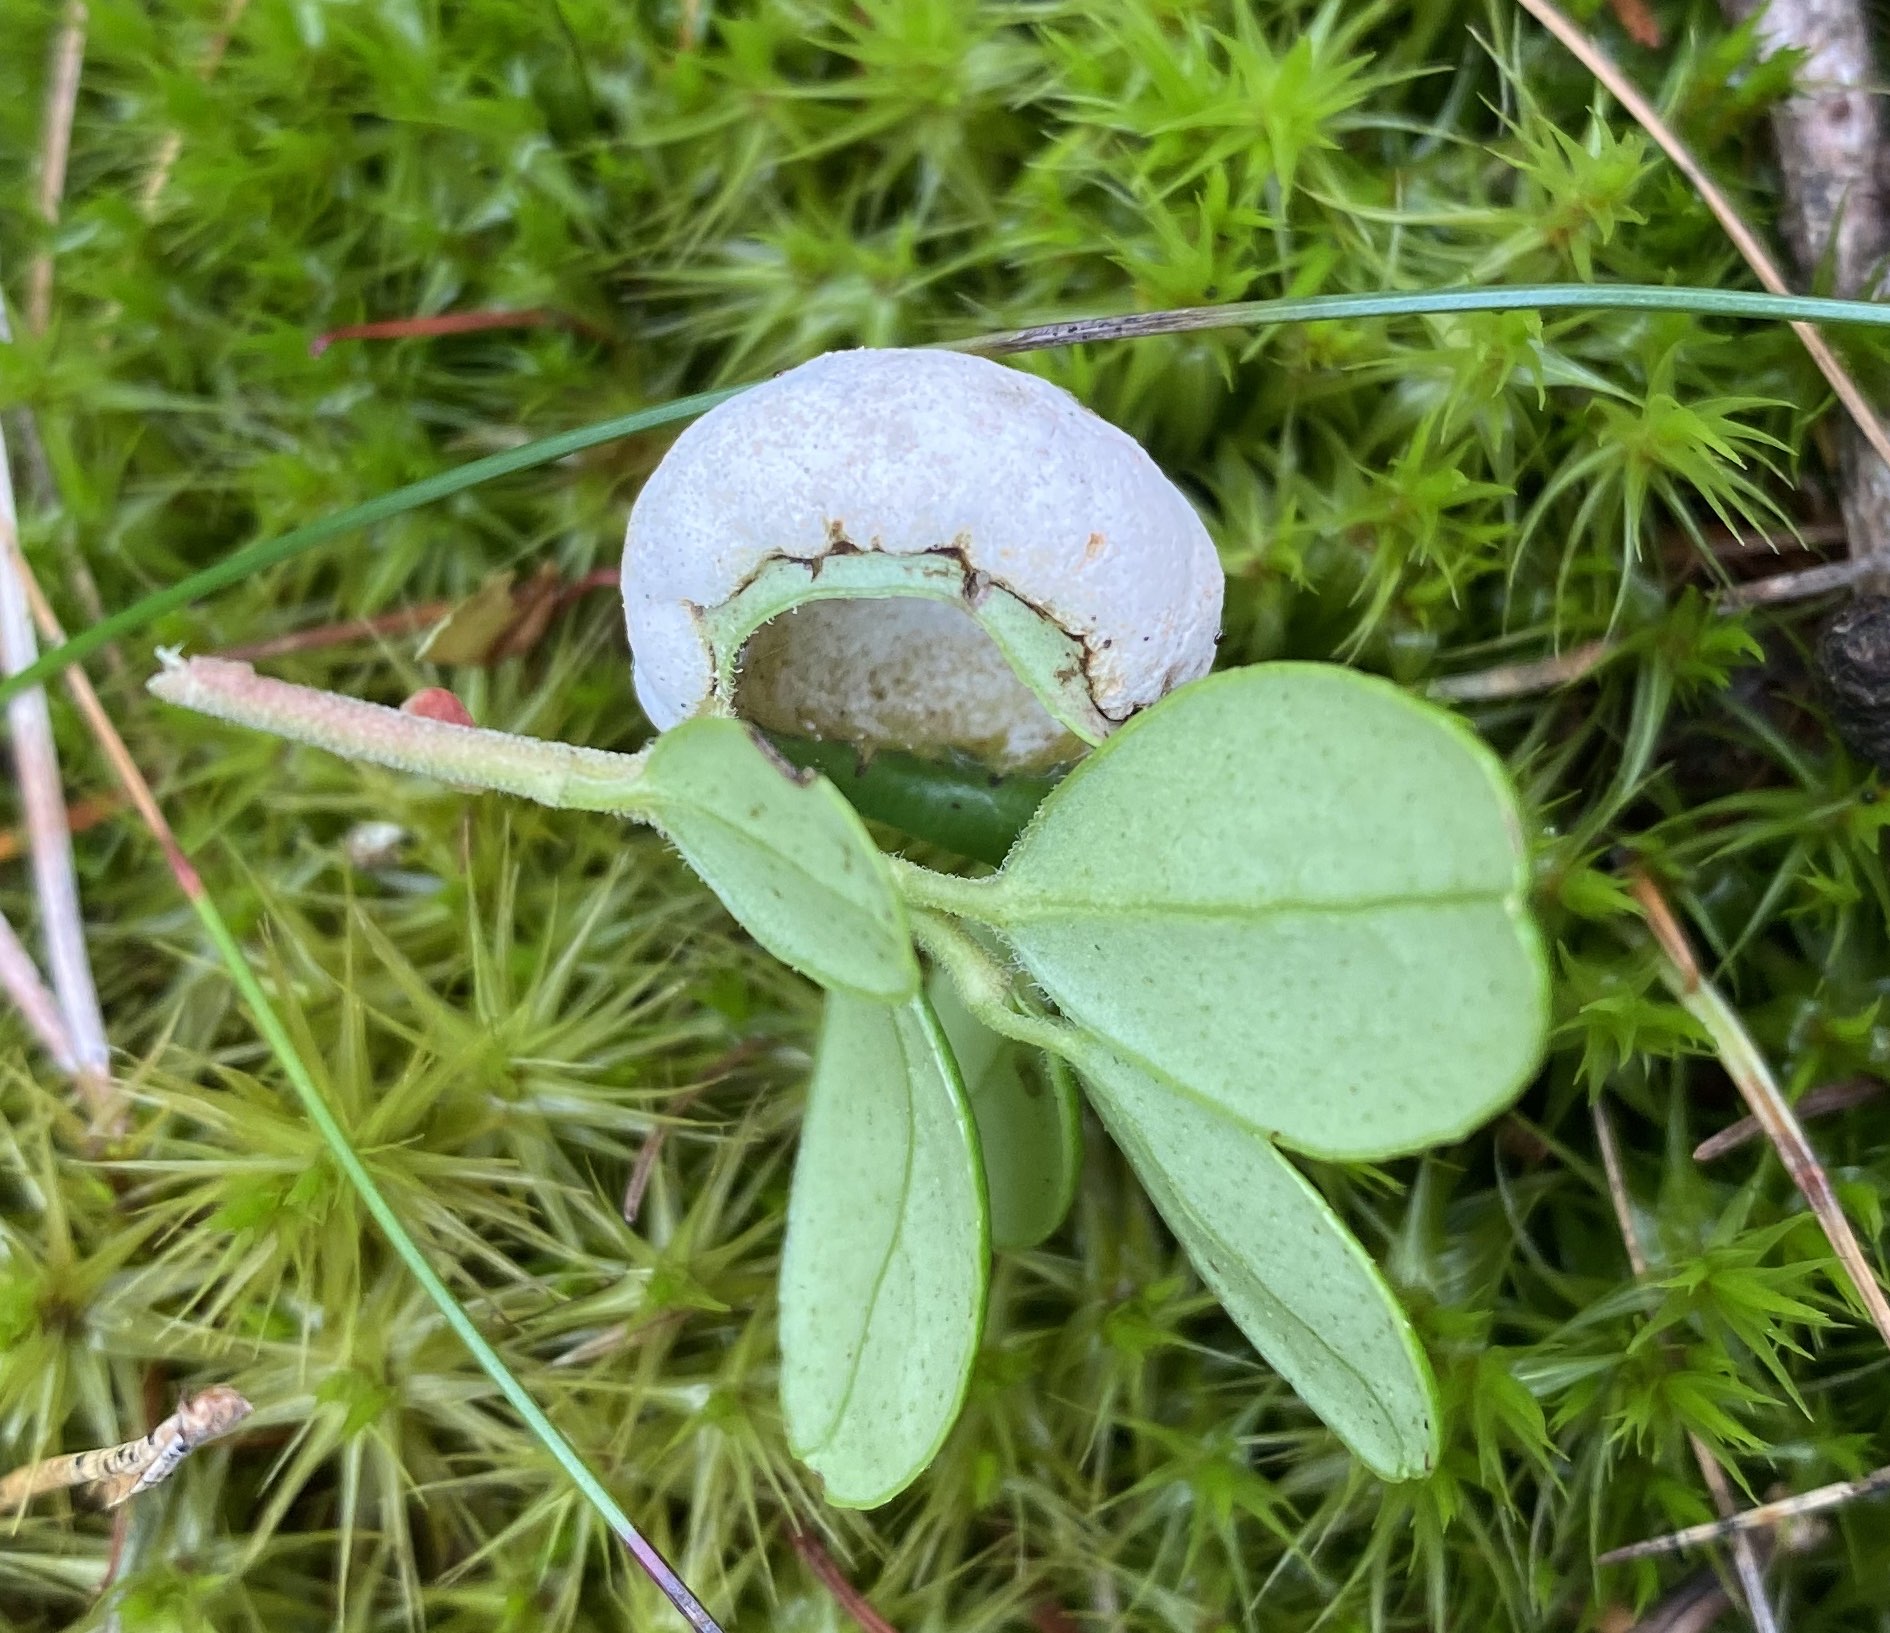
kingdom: Fungi
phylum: Basidiomycota
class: Exobasidiomycetes
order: Exobasidiales
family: Exobasidiaceae
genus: Exobasidium
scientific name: Exobasidium vaccinii
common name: tyttebærblad-bøllesvamp
